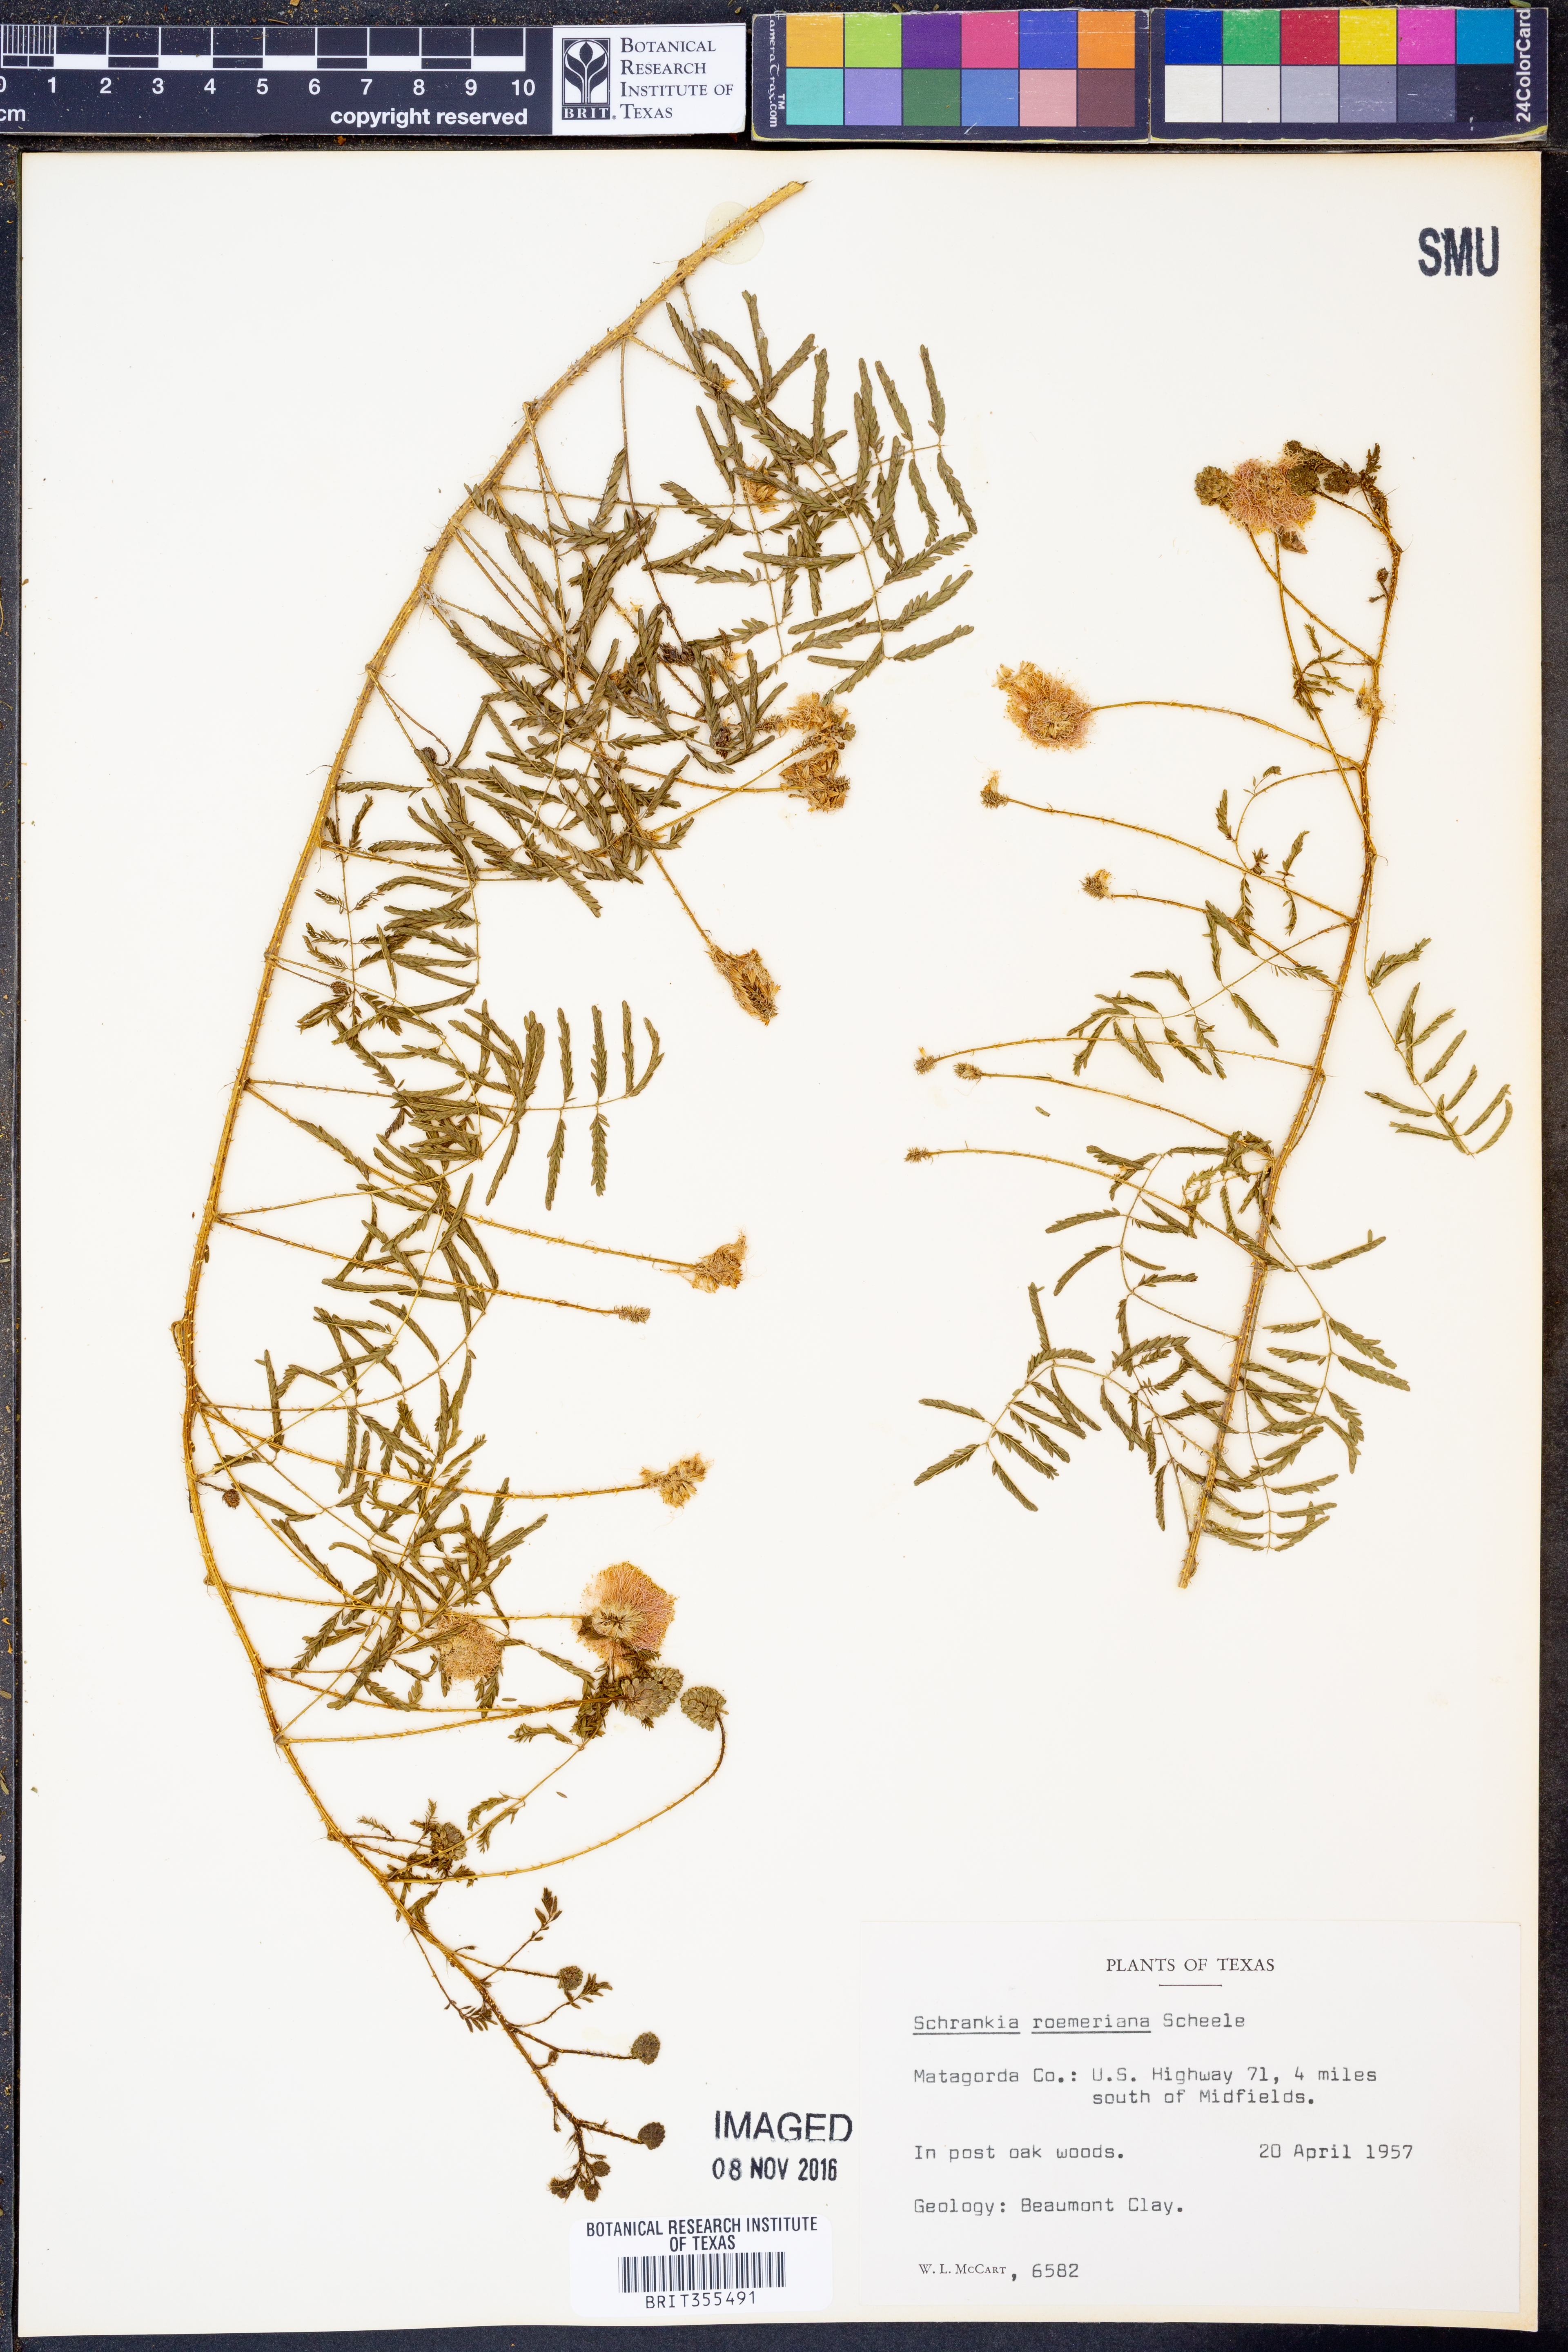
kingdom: Plantae
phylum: Tracheophyta
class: Magnoliopsida
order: Fabales
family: Fabaceae
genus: Mimosa
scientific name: Mimosa quadrivalvis
